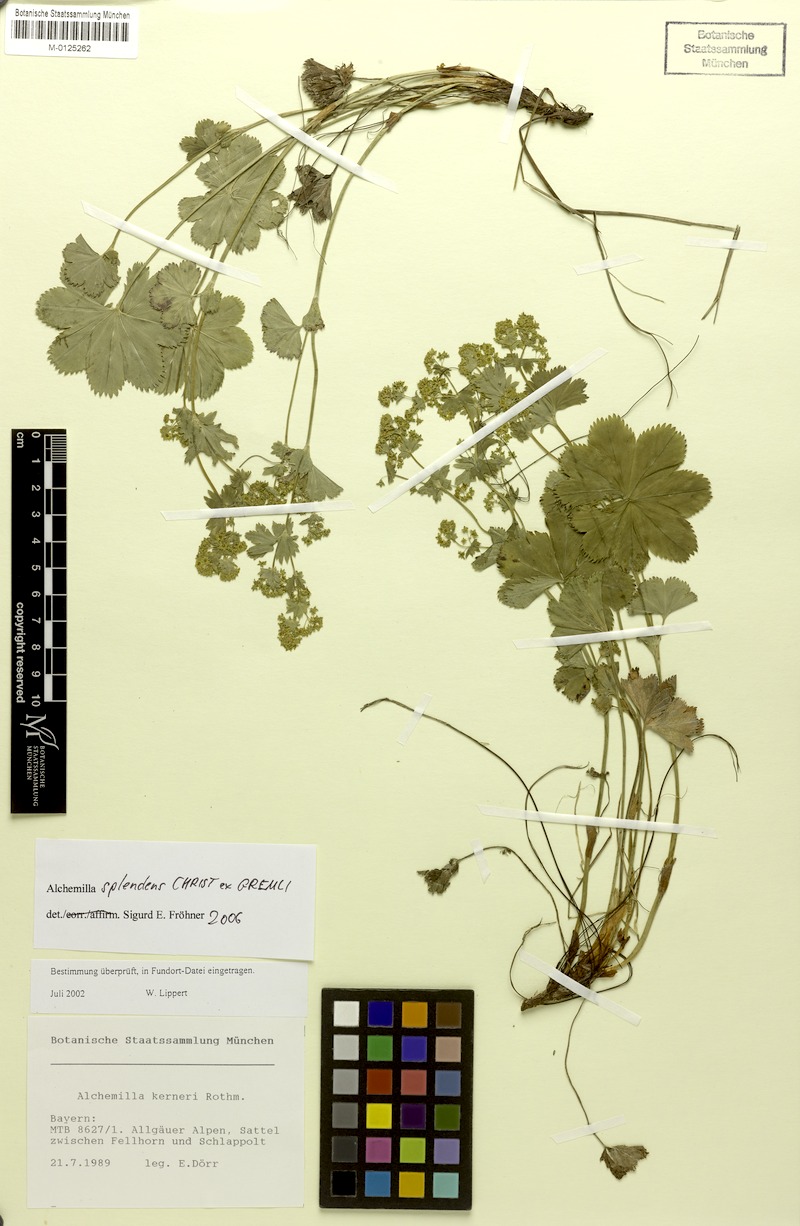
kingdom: Plantae
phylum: Tracheophyta
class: Magnoliopsida
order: Rosales
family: Rosaceae
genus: Alchemilla
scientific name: Alchemilla splendens
